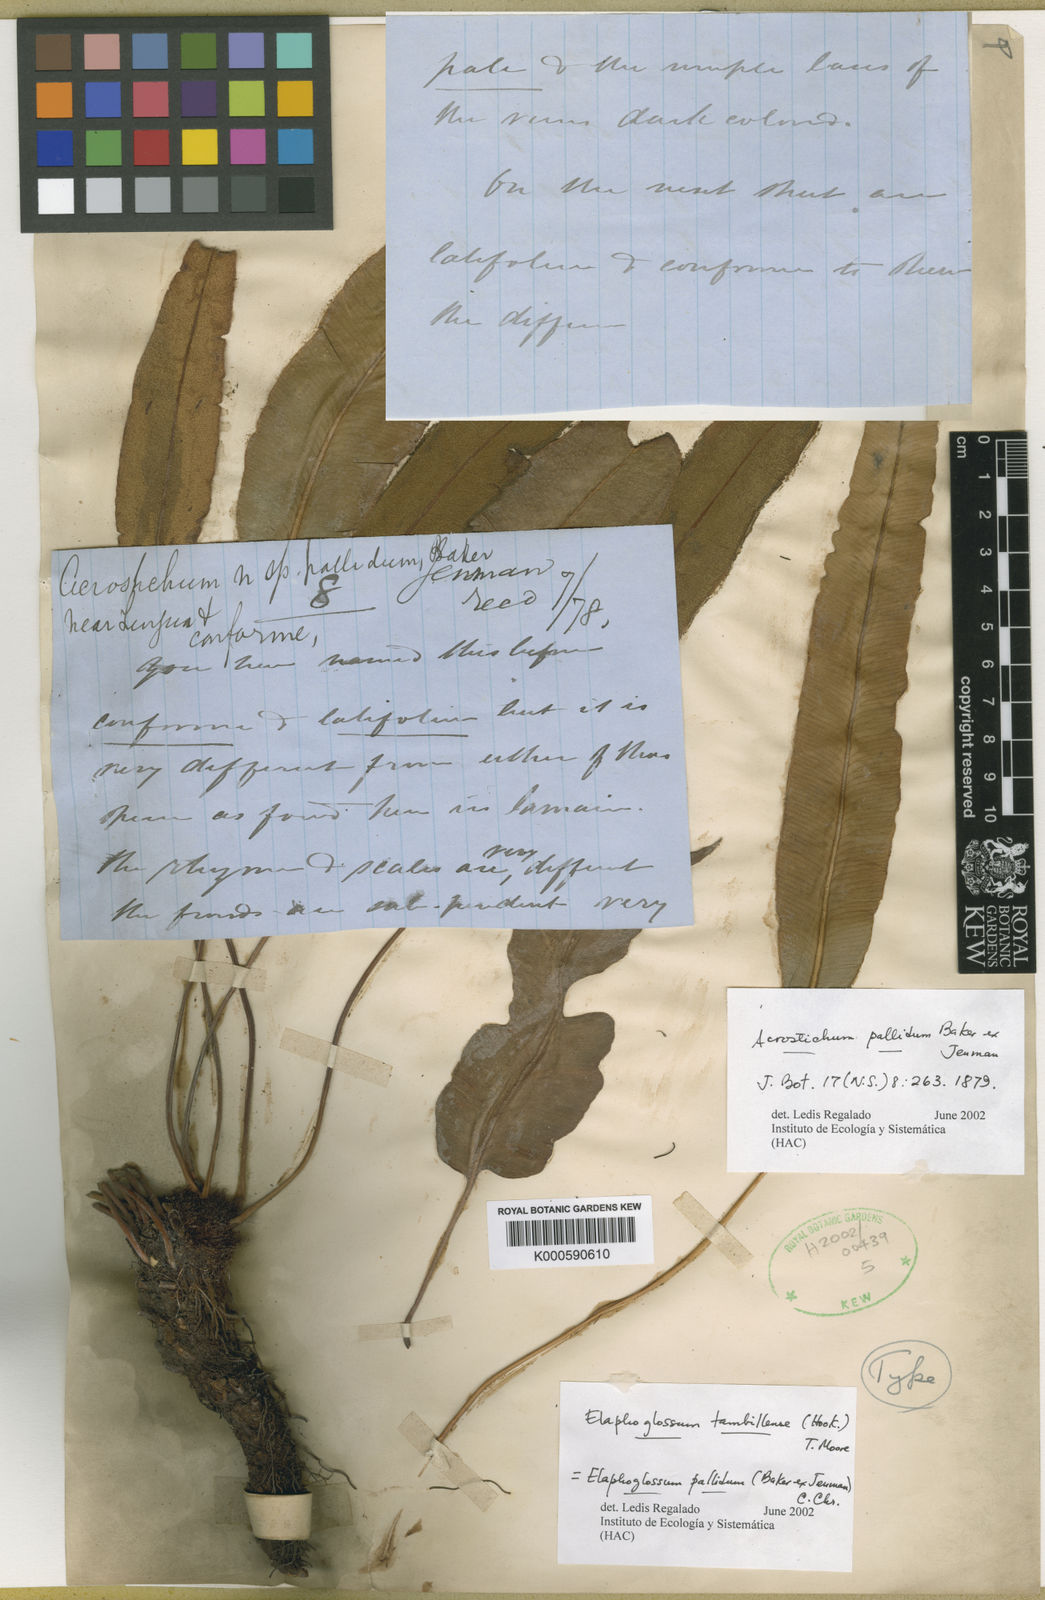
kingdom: Plantae
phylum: Tracheophyta
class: Polypodiopsida
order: Polypodiales
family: Dryopteridaceae
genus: Elaphoglossum
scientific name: Elaphoglossum pallidum
